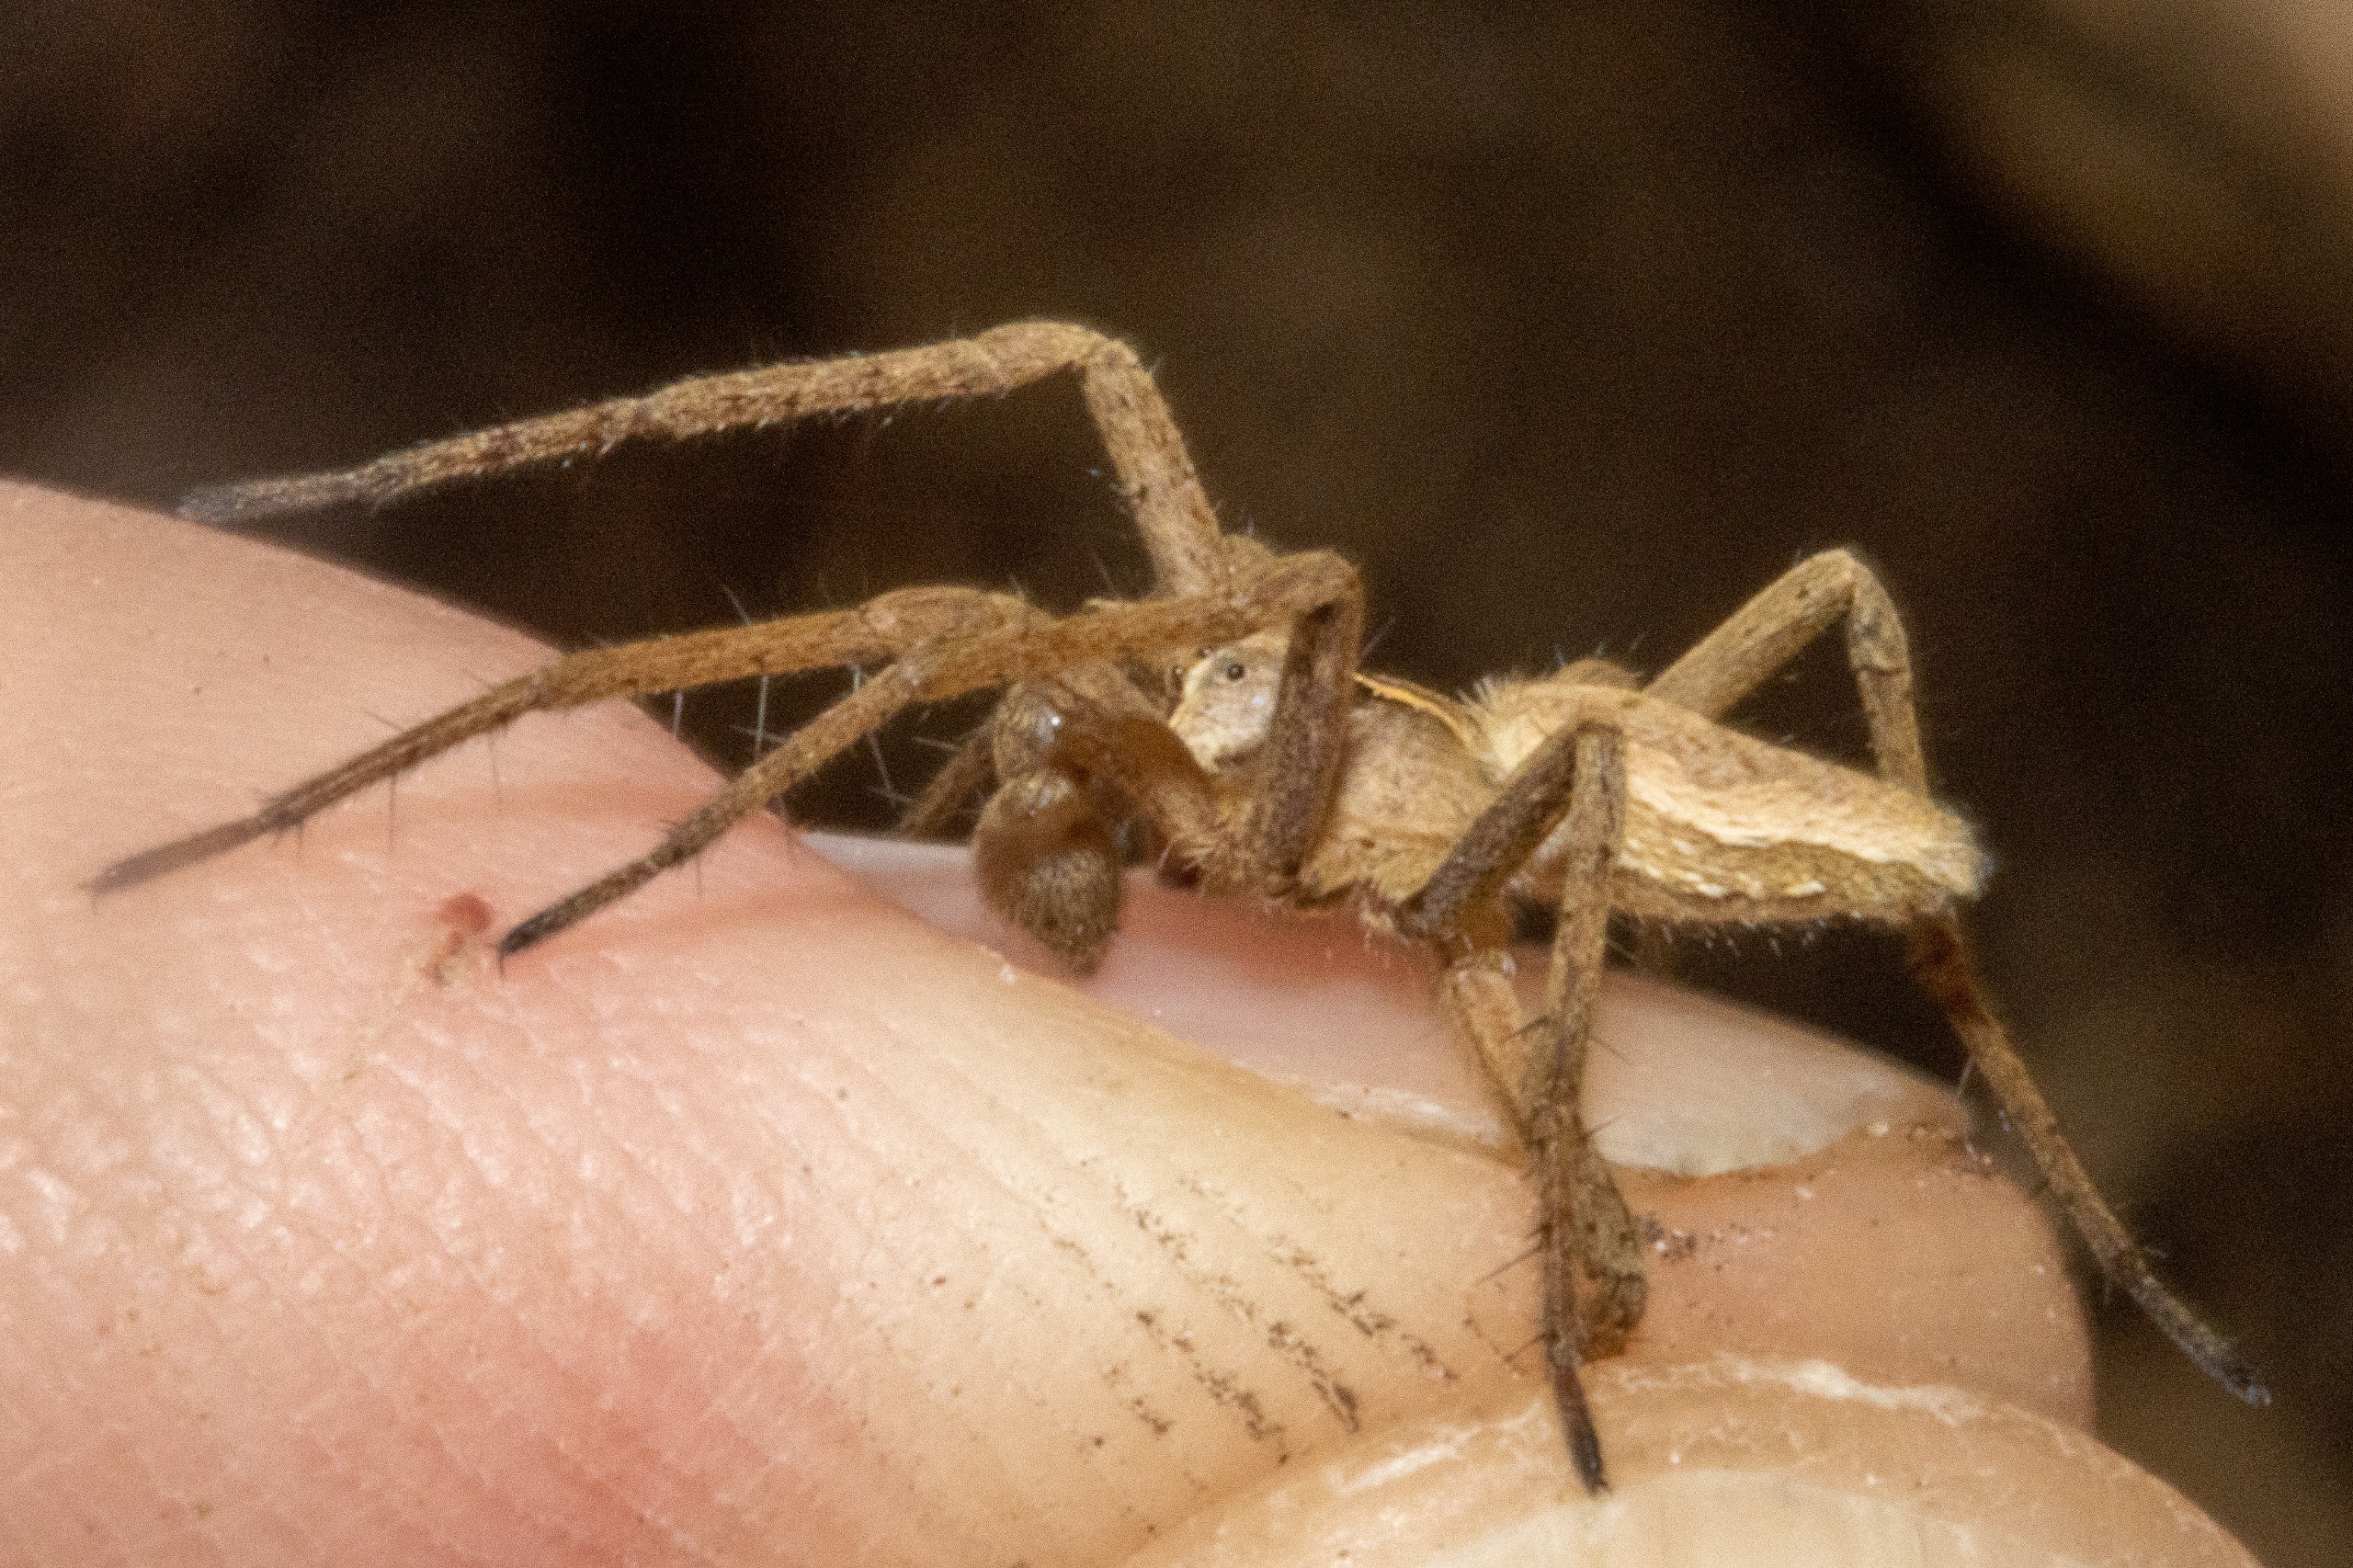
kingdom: Animalia
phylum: Arthropoda
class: Arachnida
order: Araneae
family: Pisauridae
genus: Pisaura
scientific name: Pisaura mirabilis
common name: Almindelig rovedderkop
